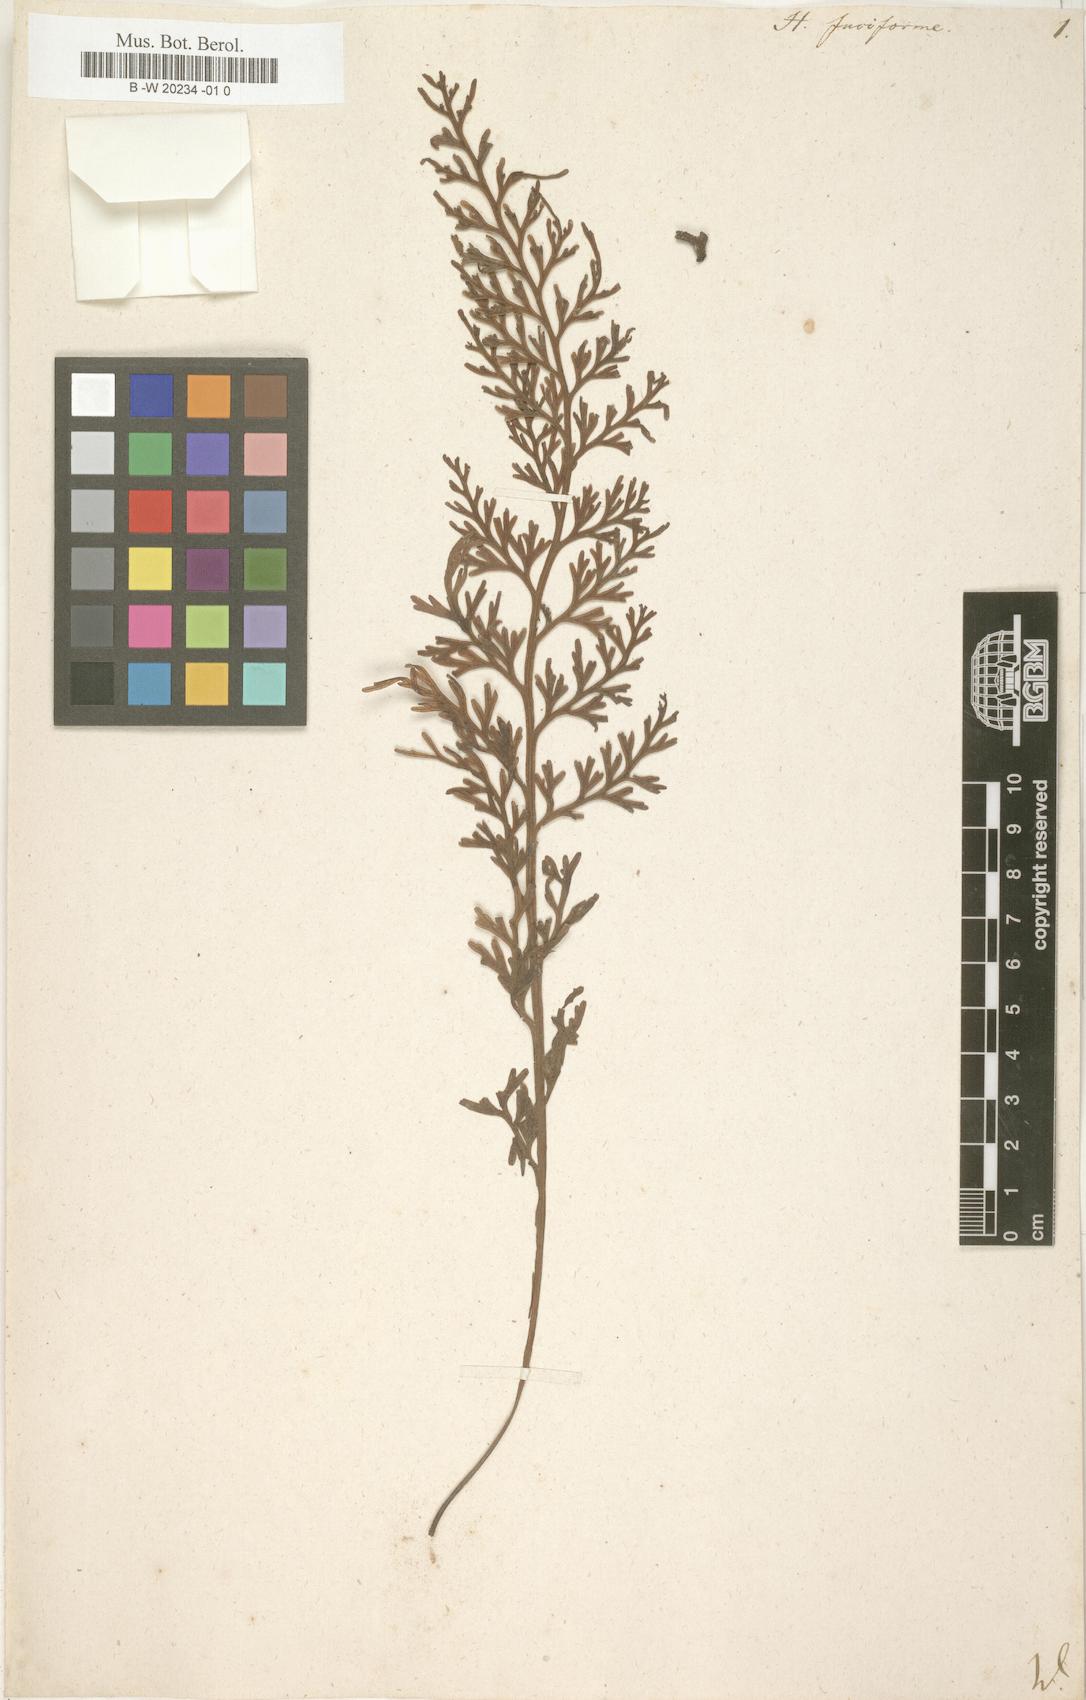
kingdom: Plantae
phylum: Tracheophyta
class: Polypodiopsida
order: Hymenophyllales
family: Hymenophyllaceae
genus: Hymenophyllum
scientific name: Hymenophyllum fuciforme
